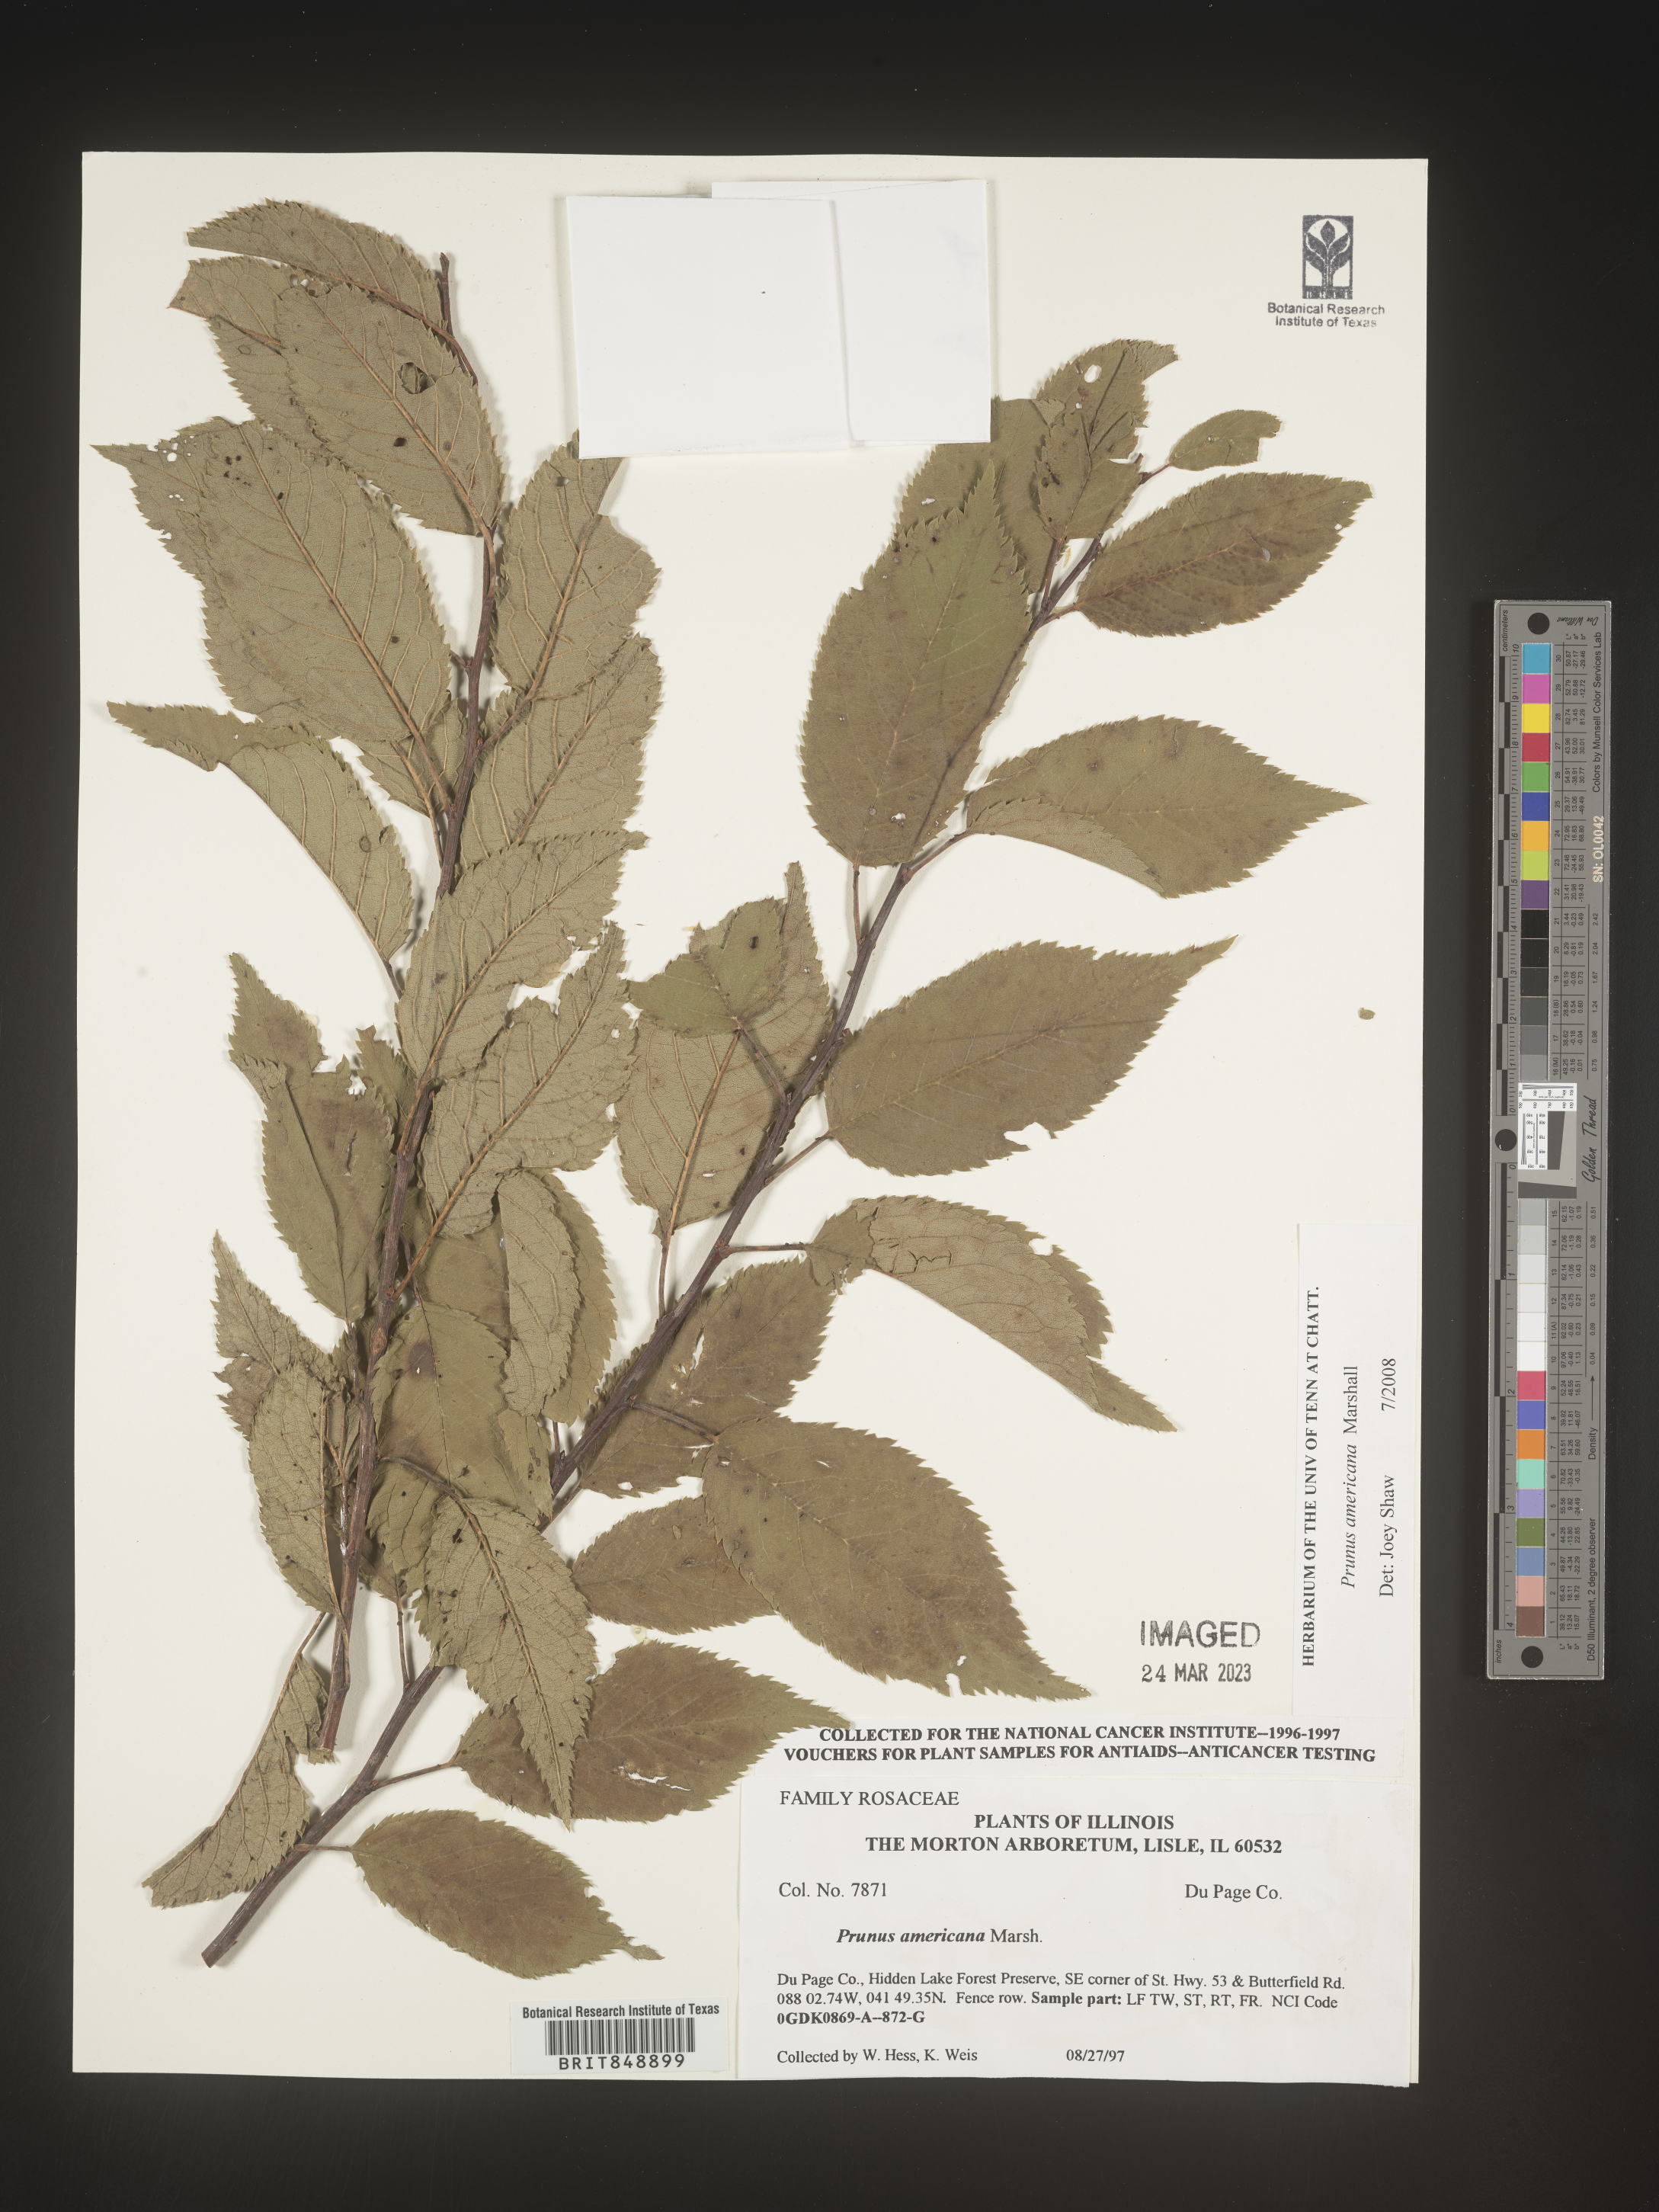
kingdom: Plantae
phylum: Tracheophyta
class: Magnoliopsida
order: Rosales
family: Rosaceae
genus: Prunus
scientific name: Prunus americana
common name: American plum
